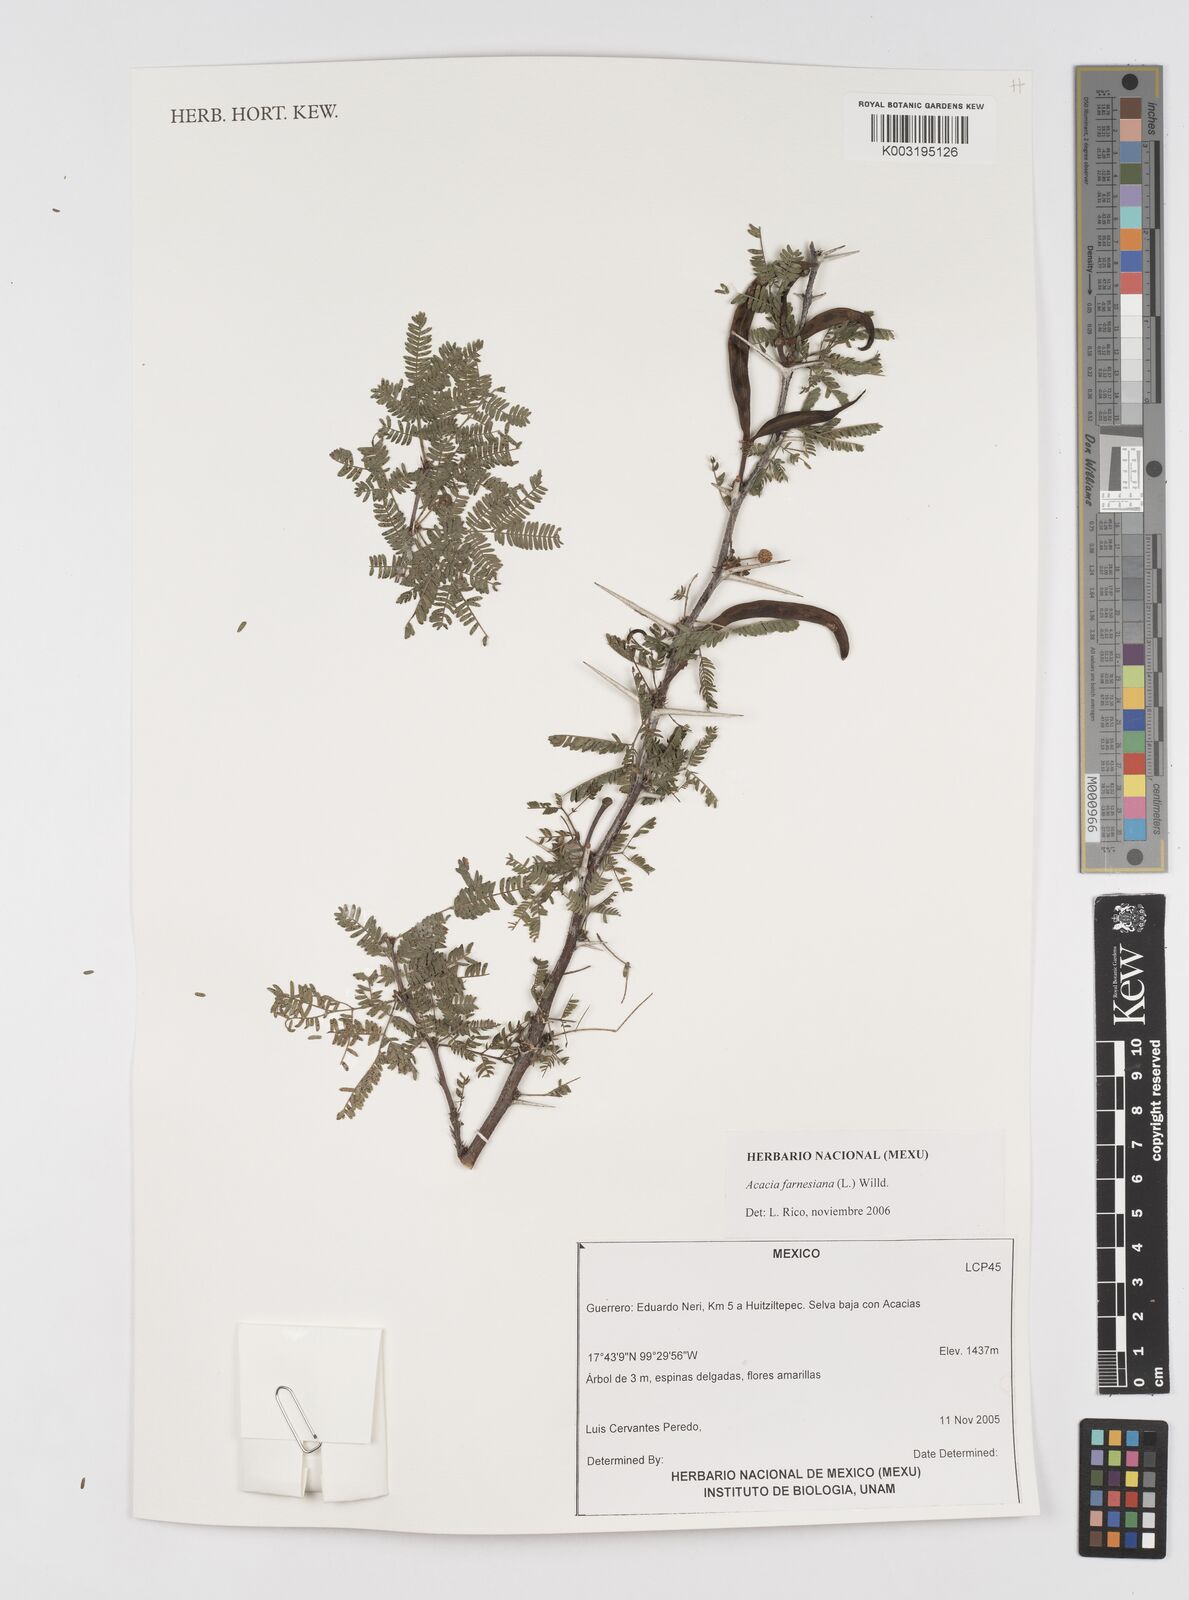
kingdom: Plantae
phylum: Tracheophyta
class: Magnoliopsida
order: Fabales
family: Fabaceae
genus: Vachellia
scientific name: Vachellia farnesiana
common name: Sweet acacia
